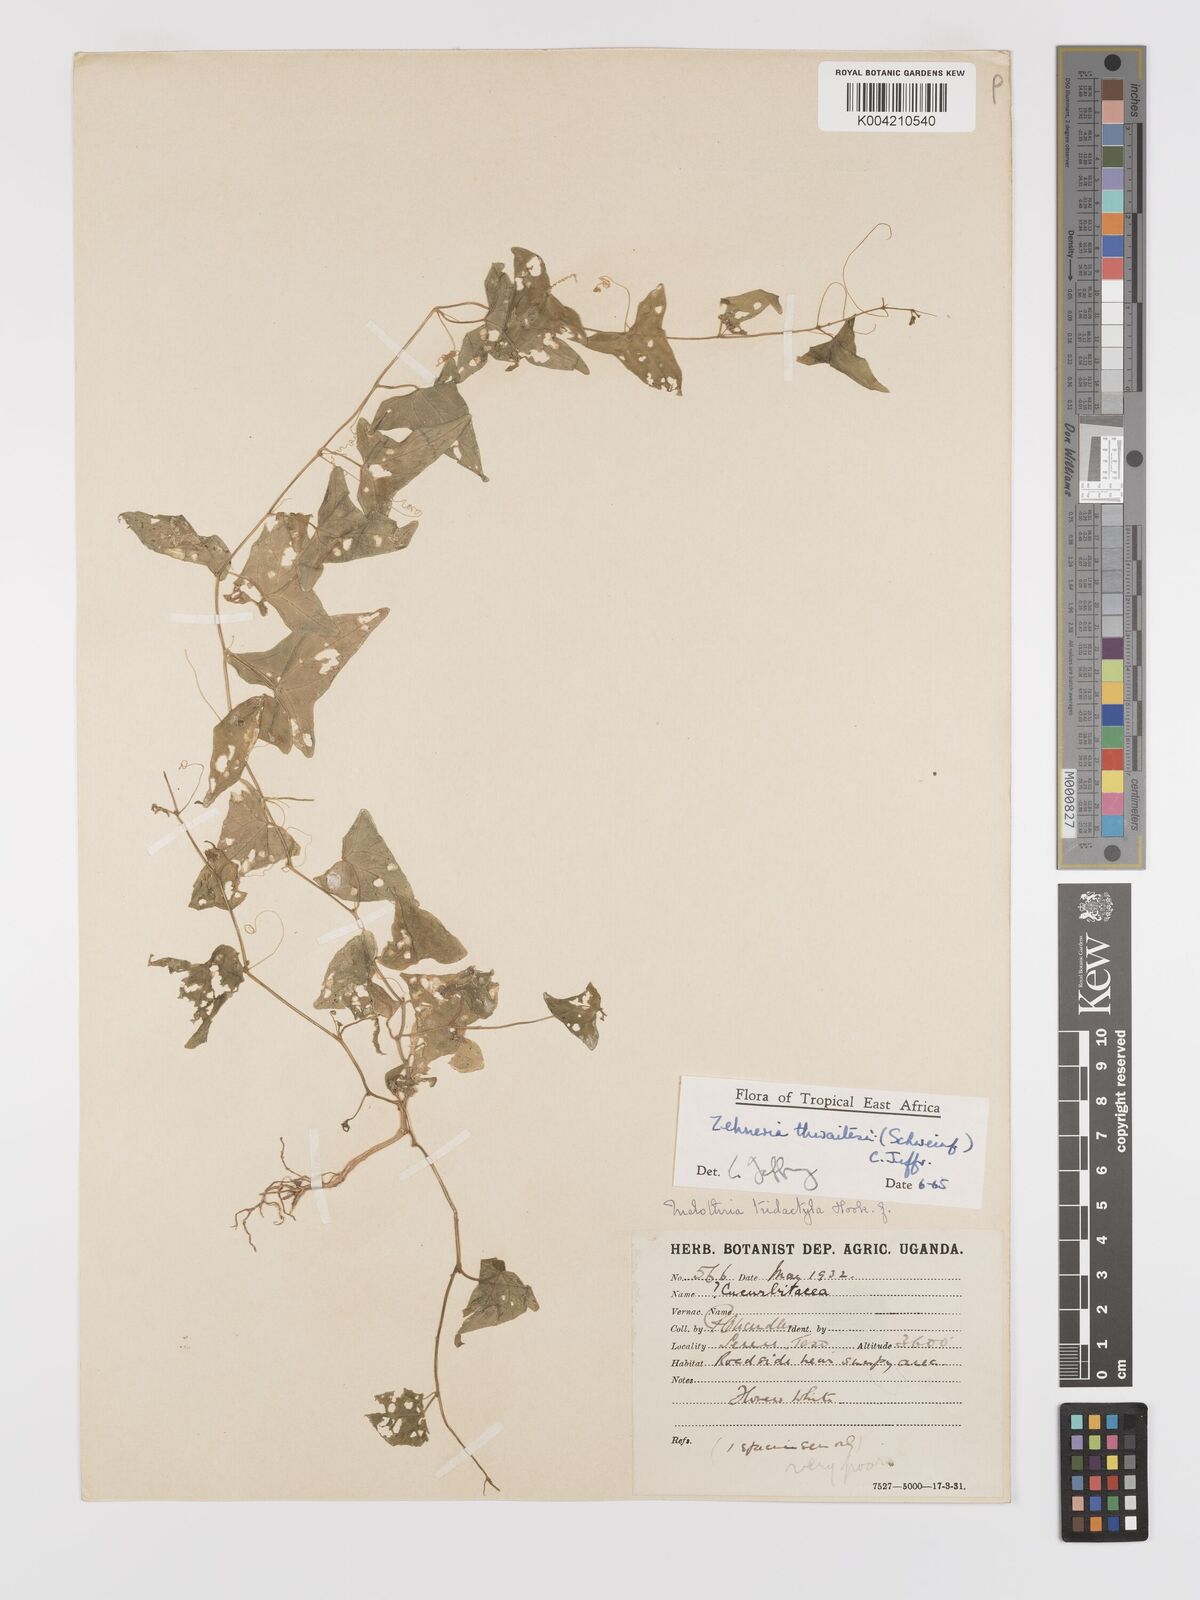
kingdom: Plantae
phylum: Tracheophyta
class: Magnoliopsida
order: Cucurbitales
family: Cucurbitaceae
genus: Zehneria
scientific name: Zehneria thwaitesii
